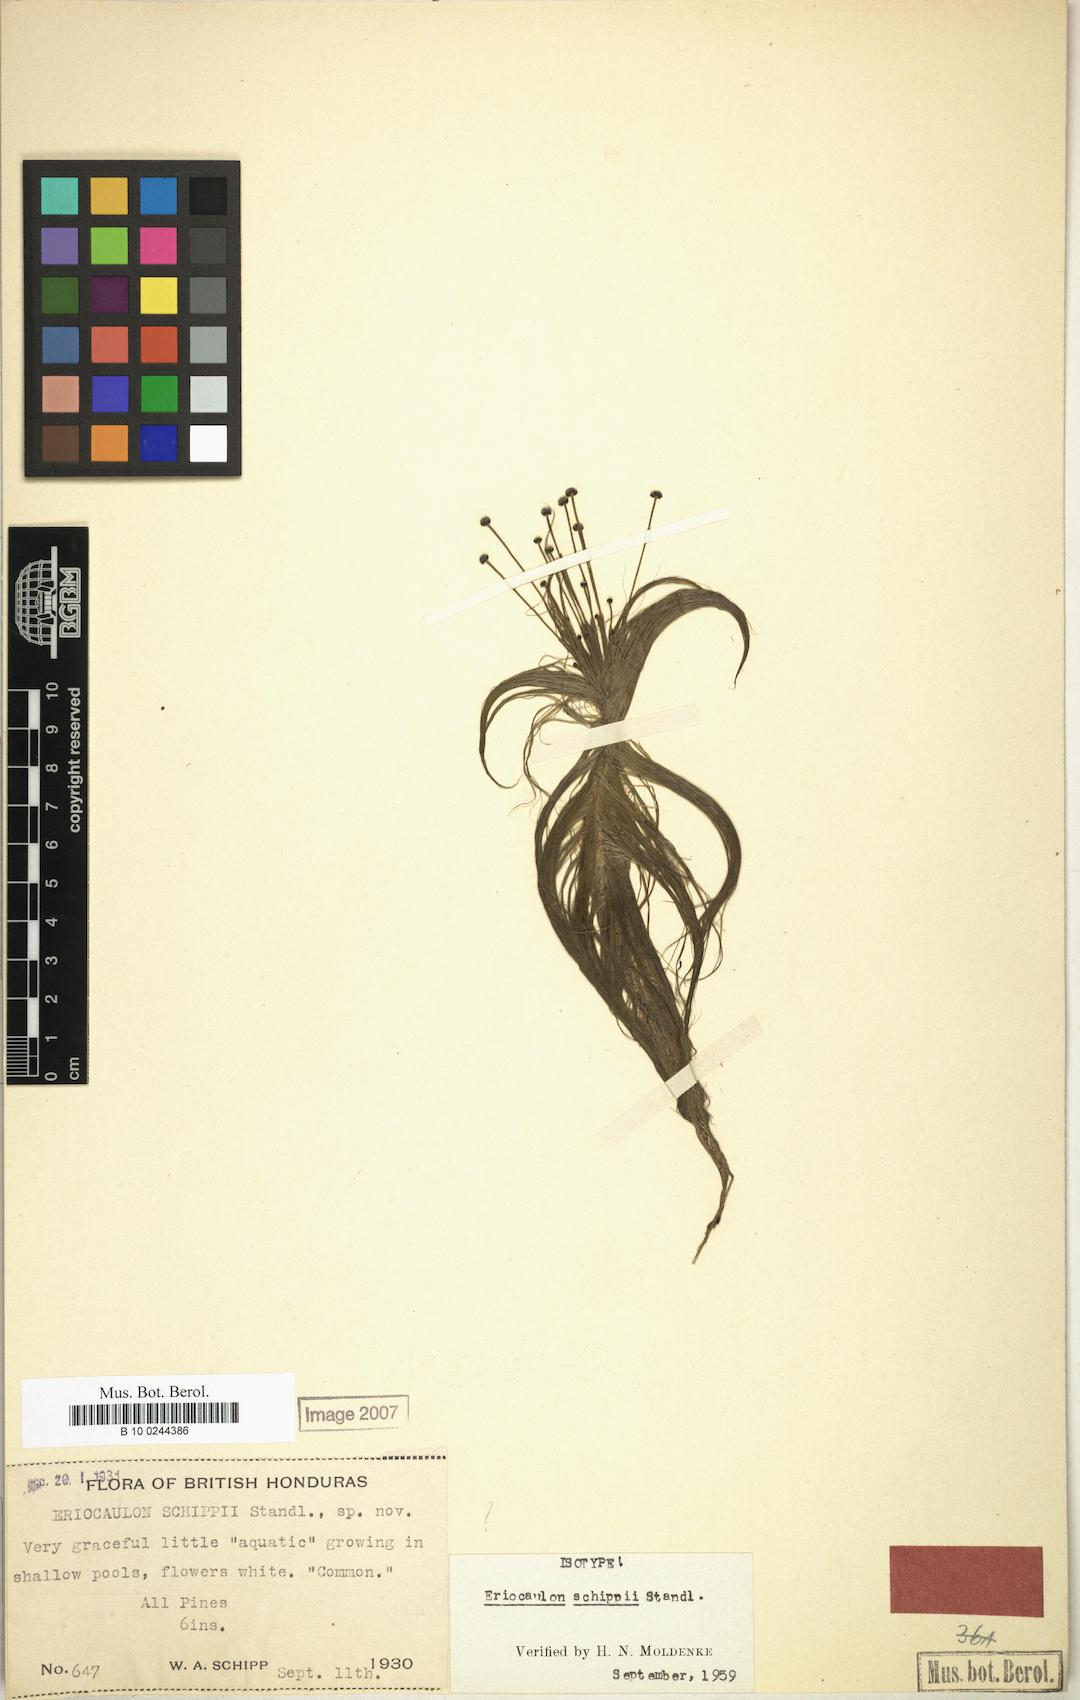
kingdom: Plantae
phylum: Tracheophyta
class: Liliopsida
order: Poales
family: Eriocaulaceae
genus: Eriocaulon
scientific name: Eriocaulon schippii
